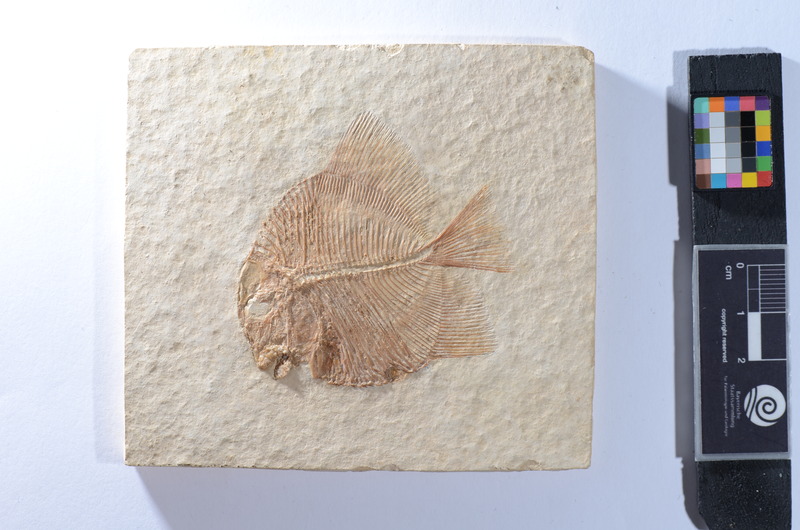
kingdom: Animalia
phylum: Chordata
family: Pycnodontidae
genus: Gyronchus
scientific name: Gyronchus
